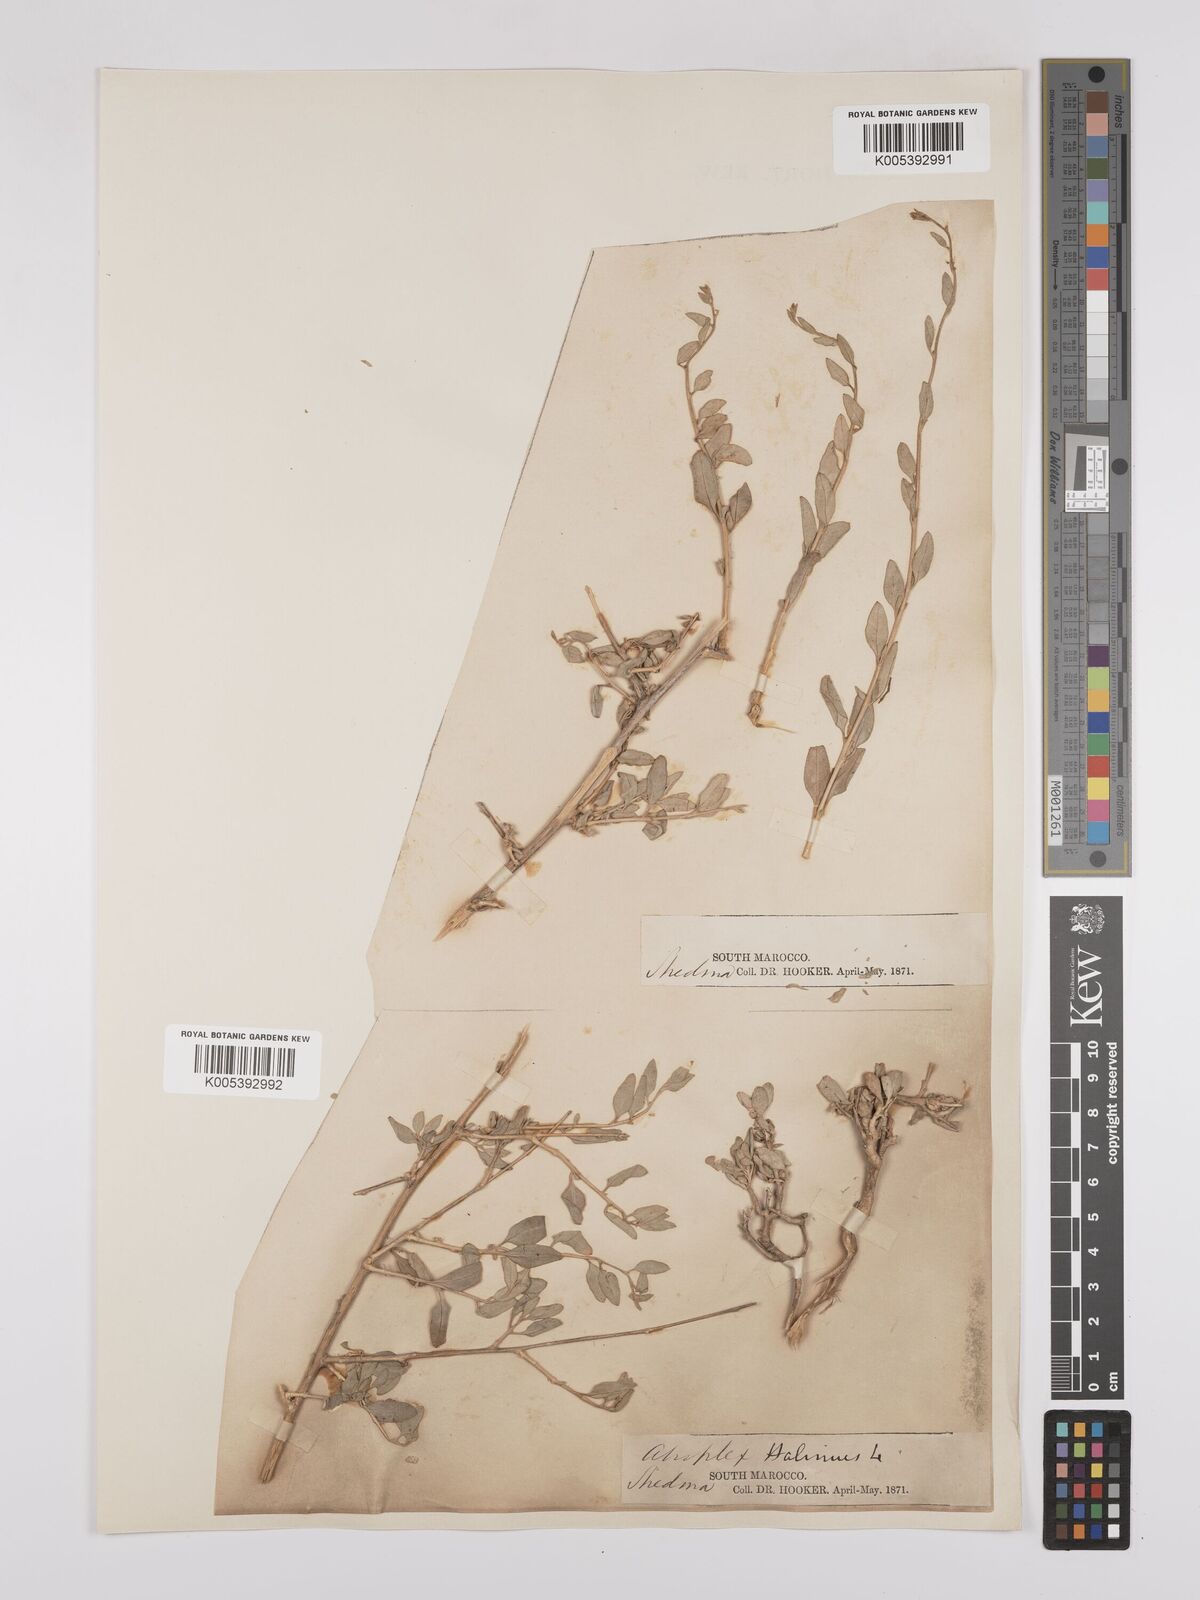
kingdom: Plantae
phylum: Tracheophyta
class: Magnoliopsida
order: Caryophyllales
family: Amaranthaceae
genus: Atriplex
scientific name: Atriplex
